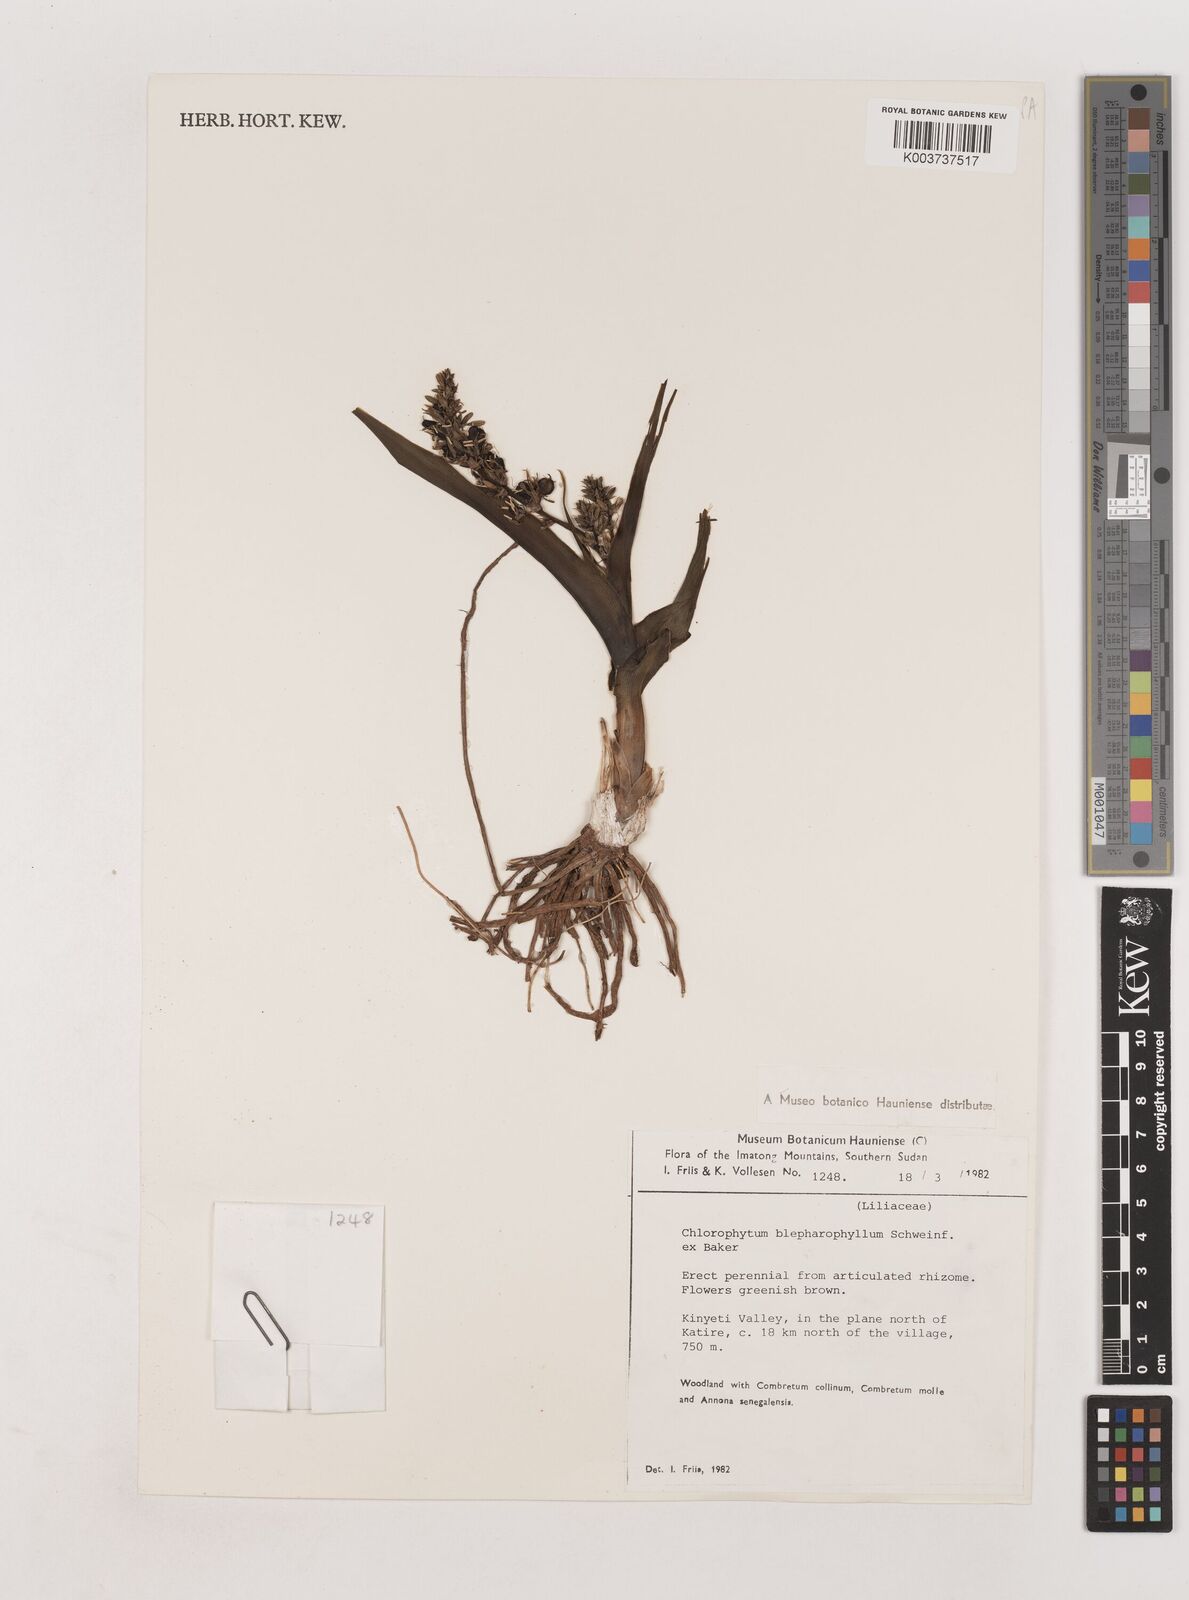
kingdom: Plantae
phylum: Tracheophyta
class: Liliopsida
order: Asparagales
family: Asparagaceae
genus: Chlorophytum
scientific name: Chlorophytum blepharophyllum
